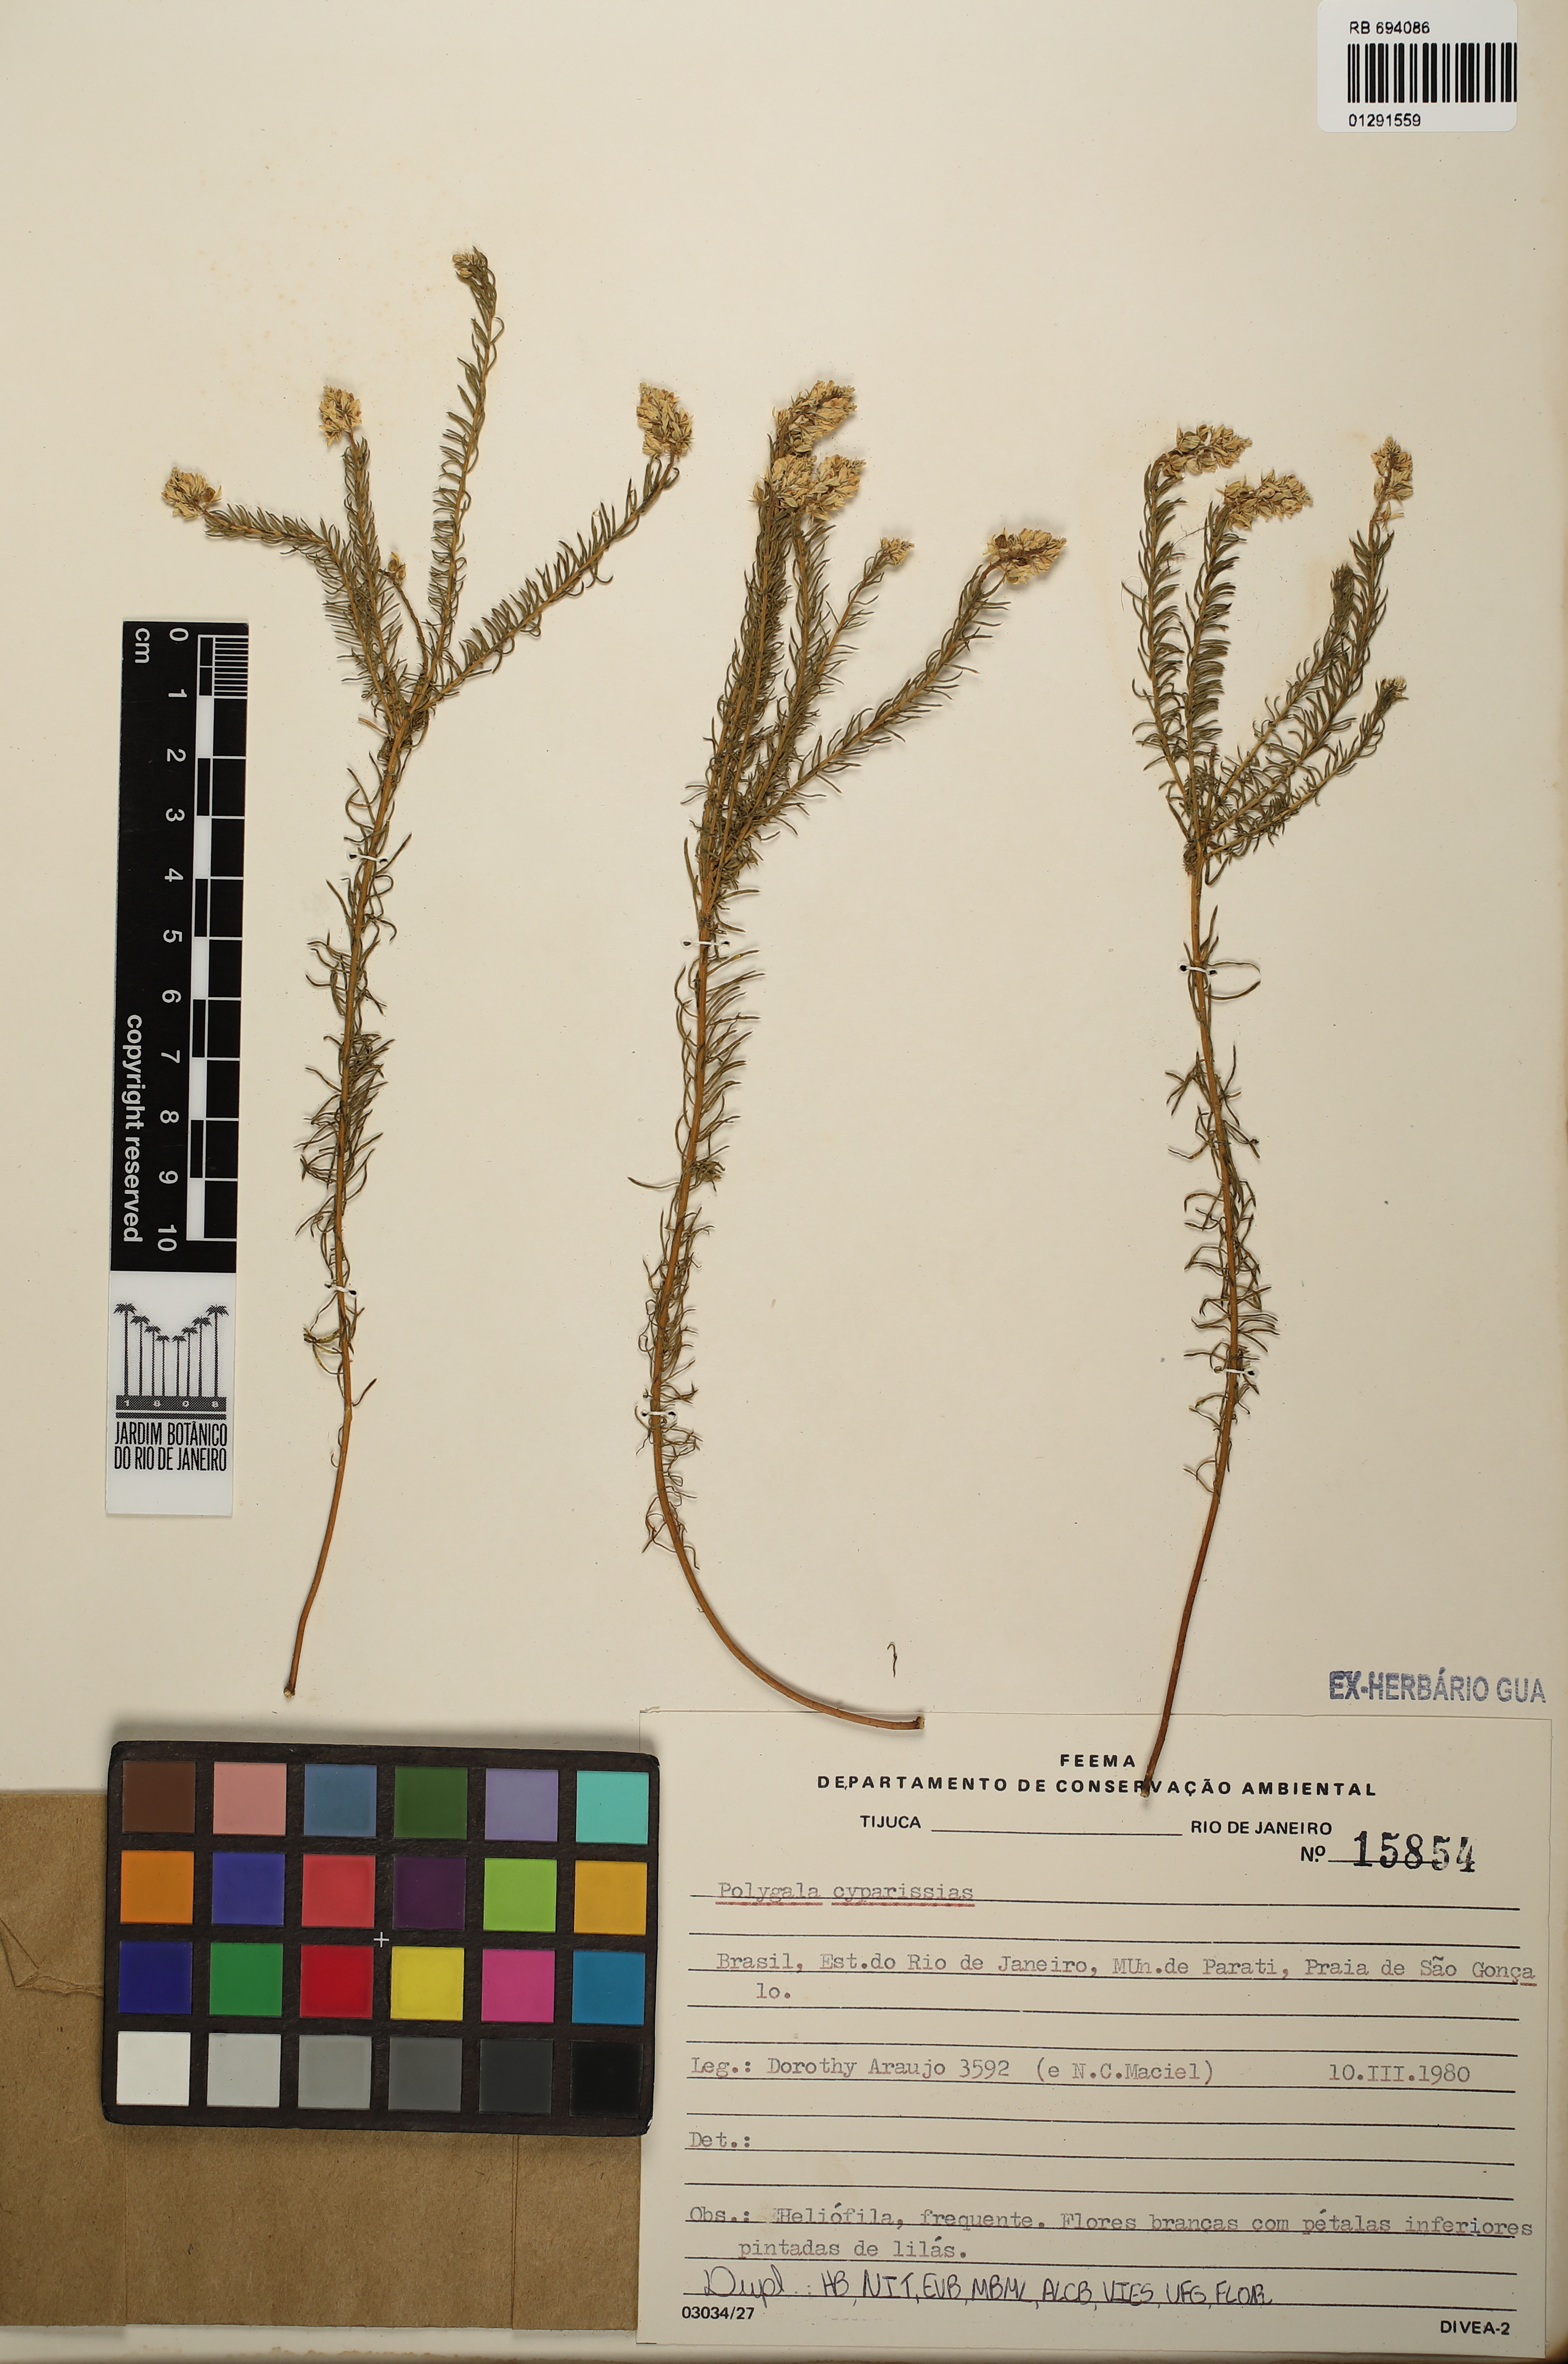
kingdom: Plantae
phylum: Tracheophyta
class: Magnoliopsida
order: Fabales
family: Polygalaceae
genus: Polygala
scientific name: Polygala cyparissias
